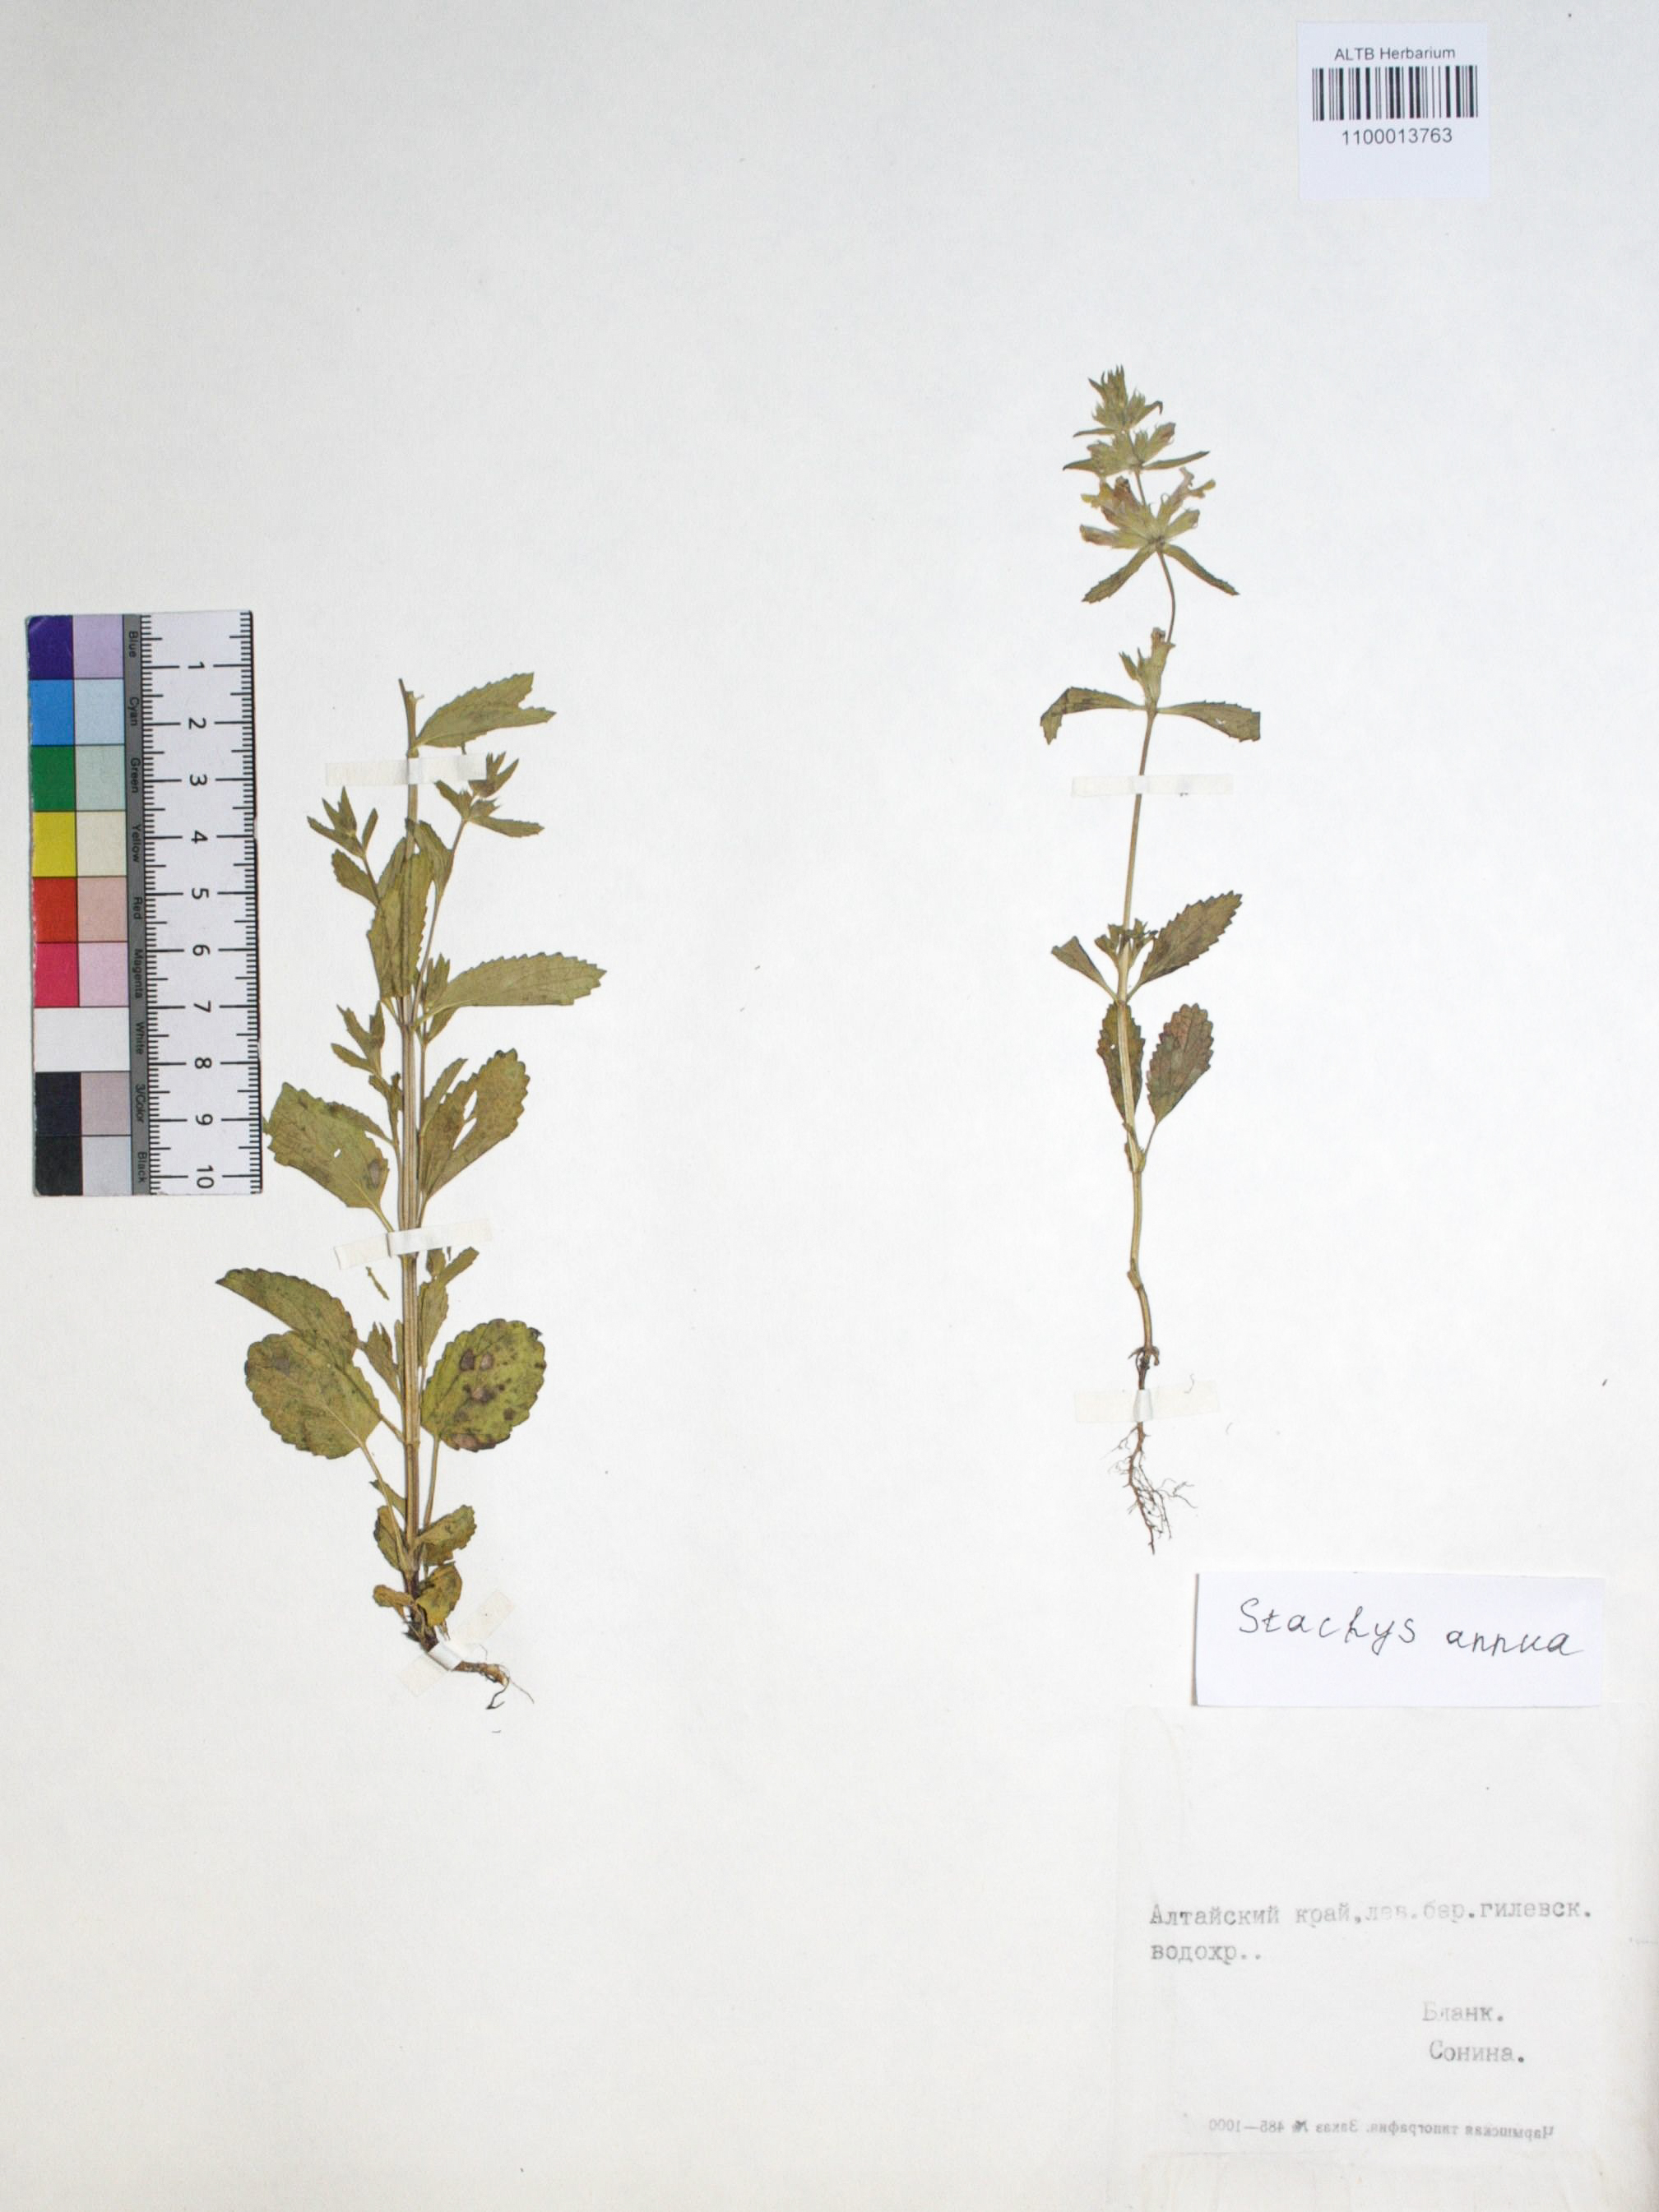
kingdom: Plantae
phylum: Tracheophyta
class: Magnoliopsida
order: Lamiales
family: Lamiaceae
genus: Stachys
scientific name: Stachys annua
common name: Annual yellow-woundwort
